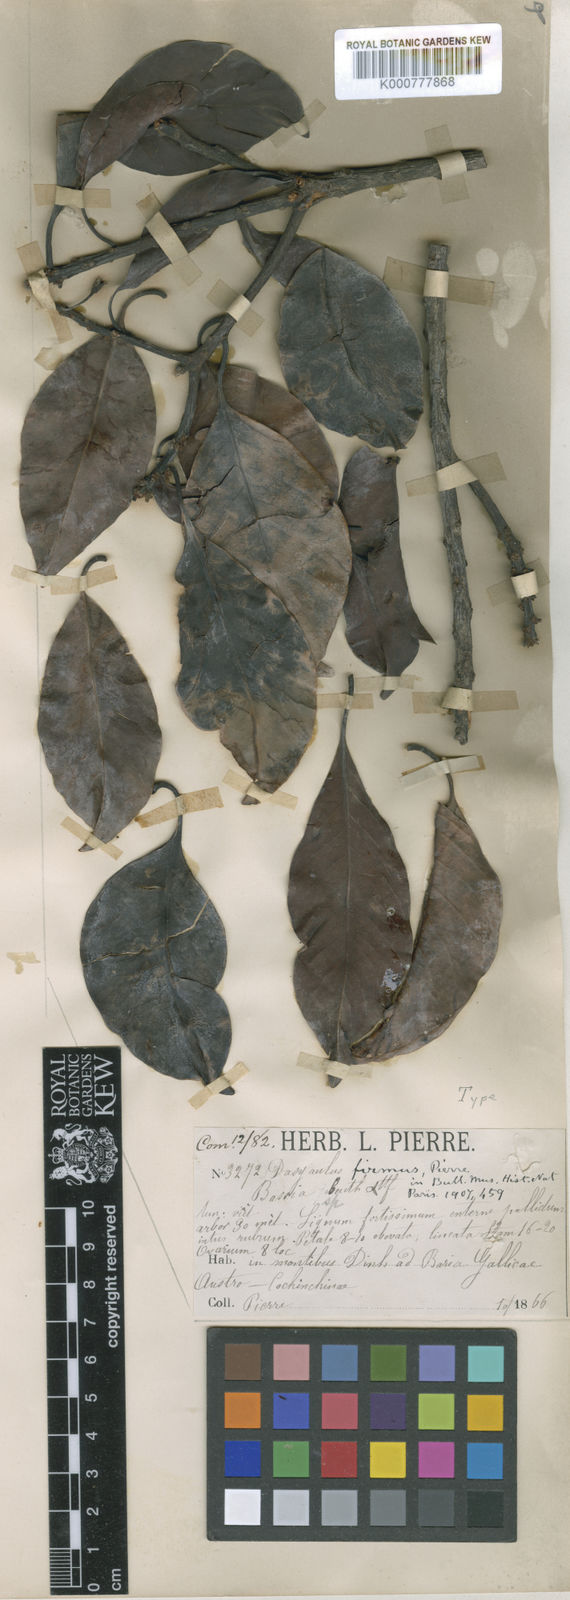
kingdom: Plantae
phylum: Tracheophyta
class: Magnoliopsida
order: Ericales
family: Sapotaceae
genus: Madhuca
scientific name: Madhuca firma
